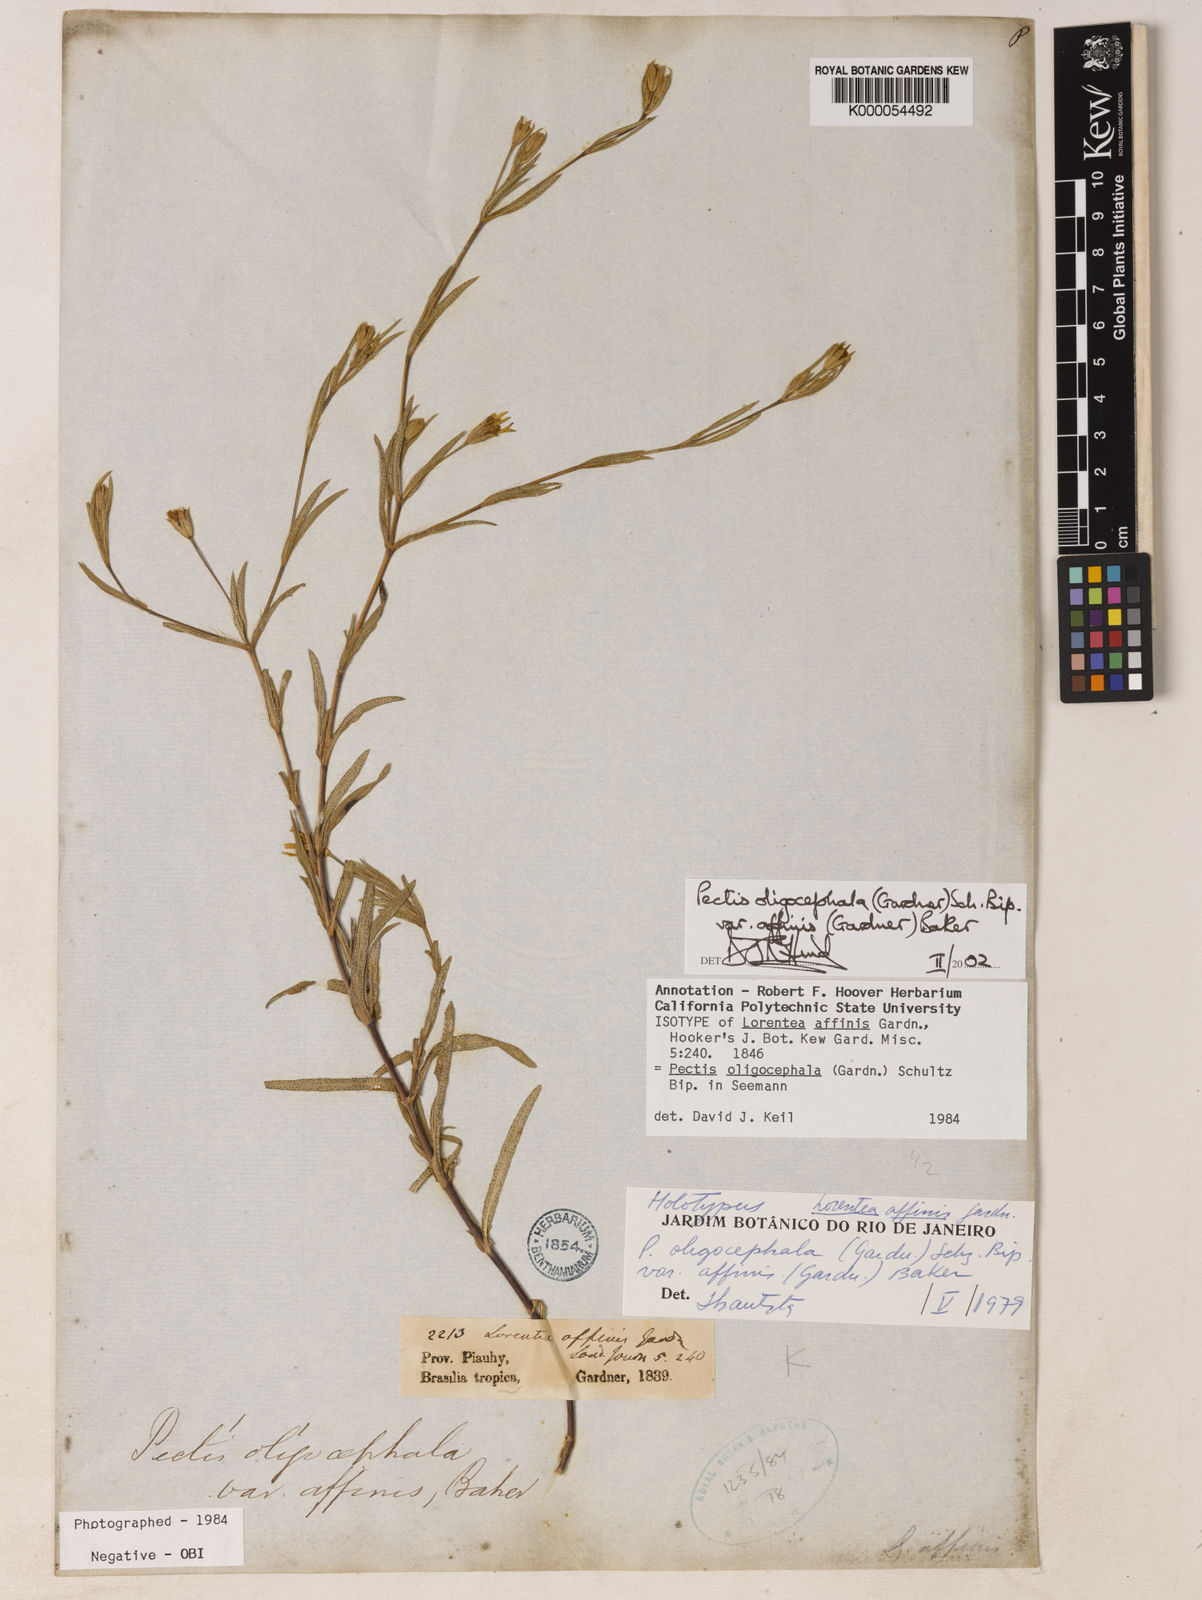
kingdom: Plantae
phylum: Tracheophyta
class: Magnoliopsida
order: Asterales
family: Asteraceae
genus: Pectis
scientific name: Pectis oligocephala
